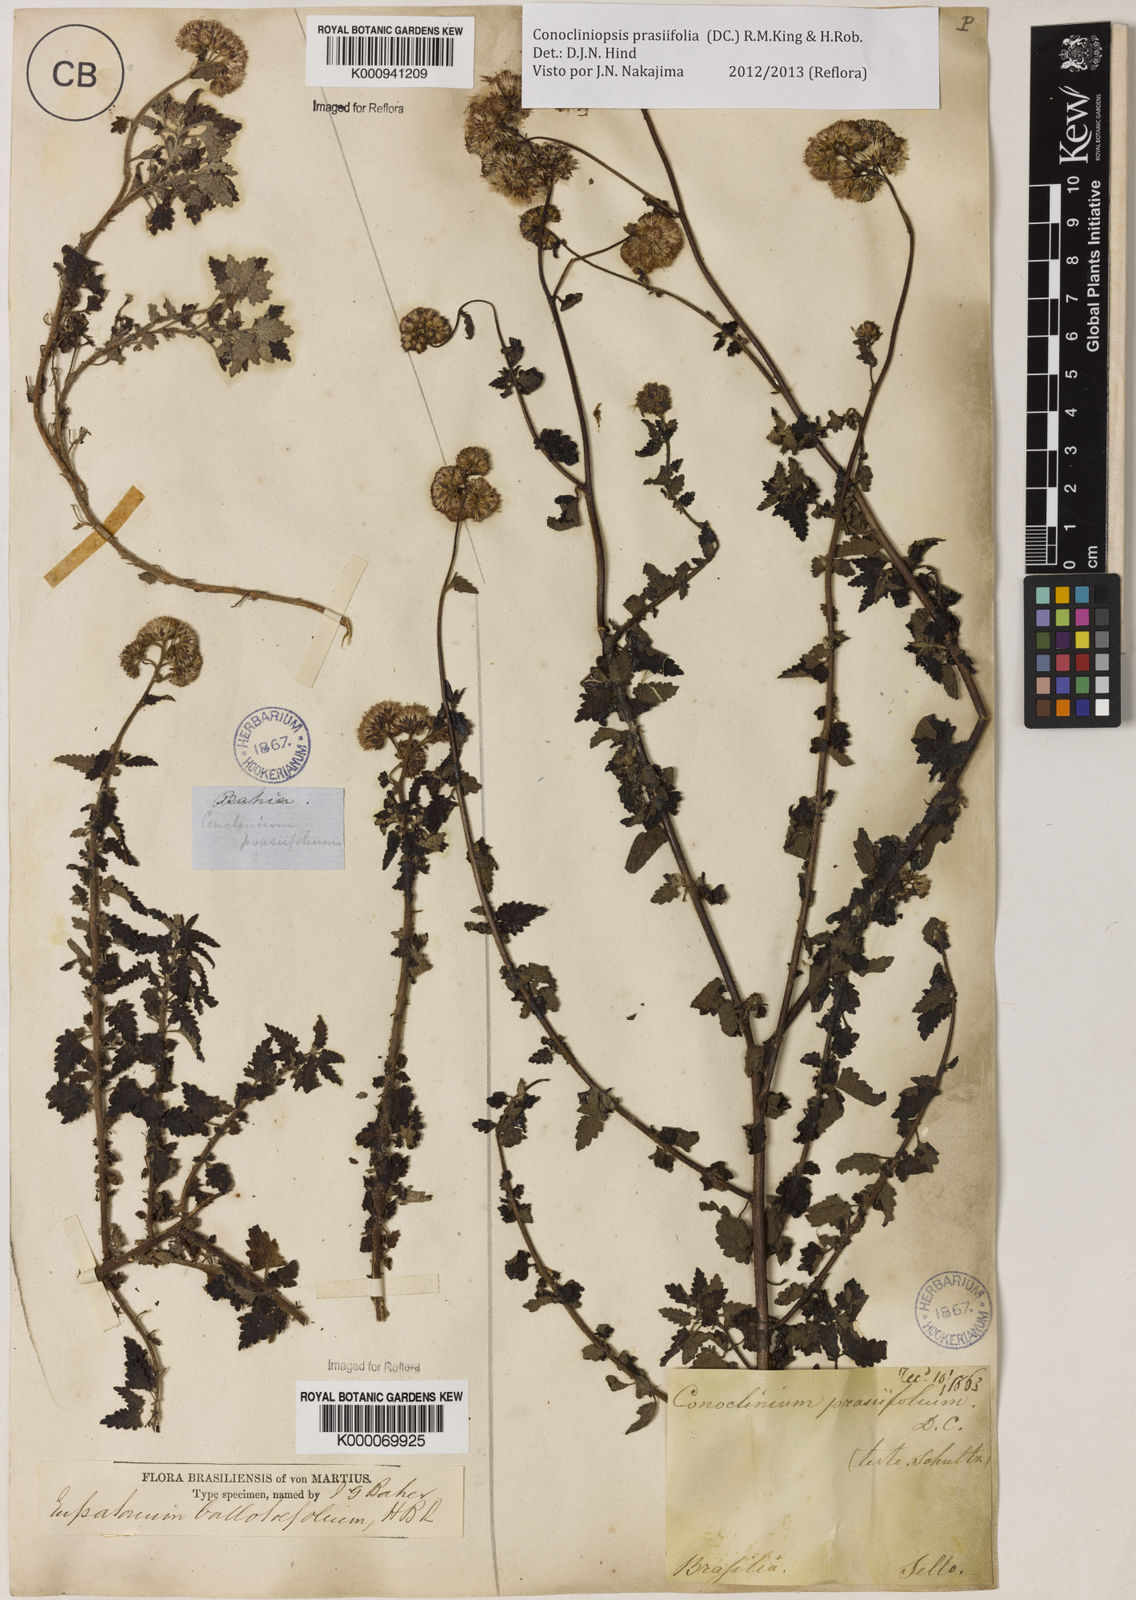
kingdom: Plantae
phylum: Tracheophyta
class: Magnoliopsida
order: Asterales
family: Asteraceae
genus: Conocliniopsis
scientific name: Conocliniopsis grossedentata
